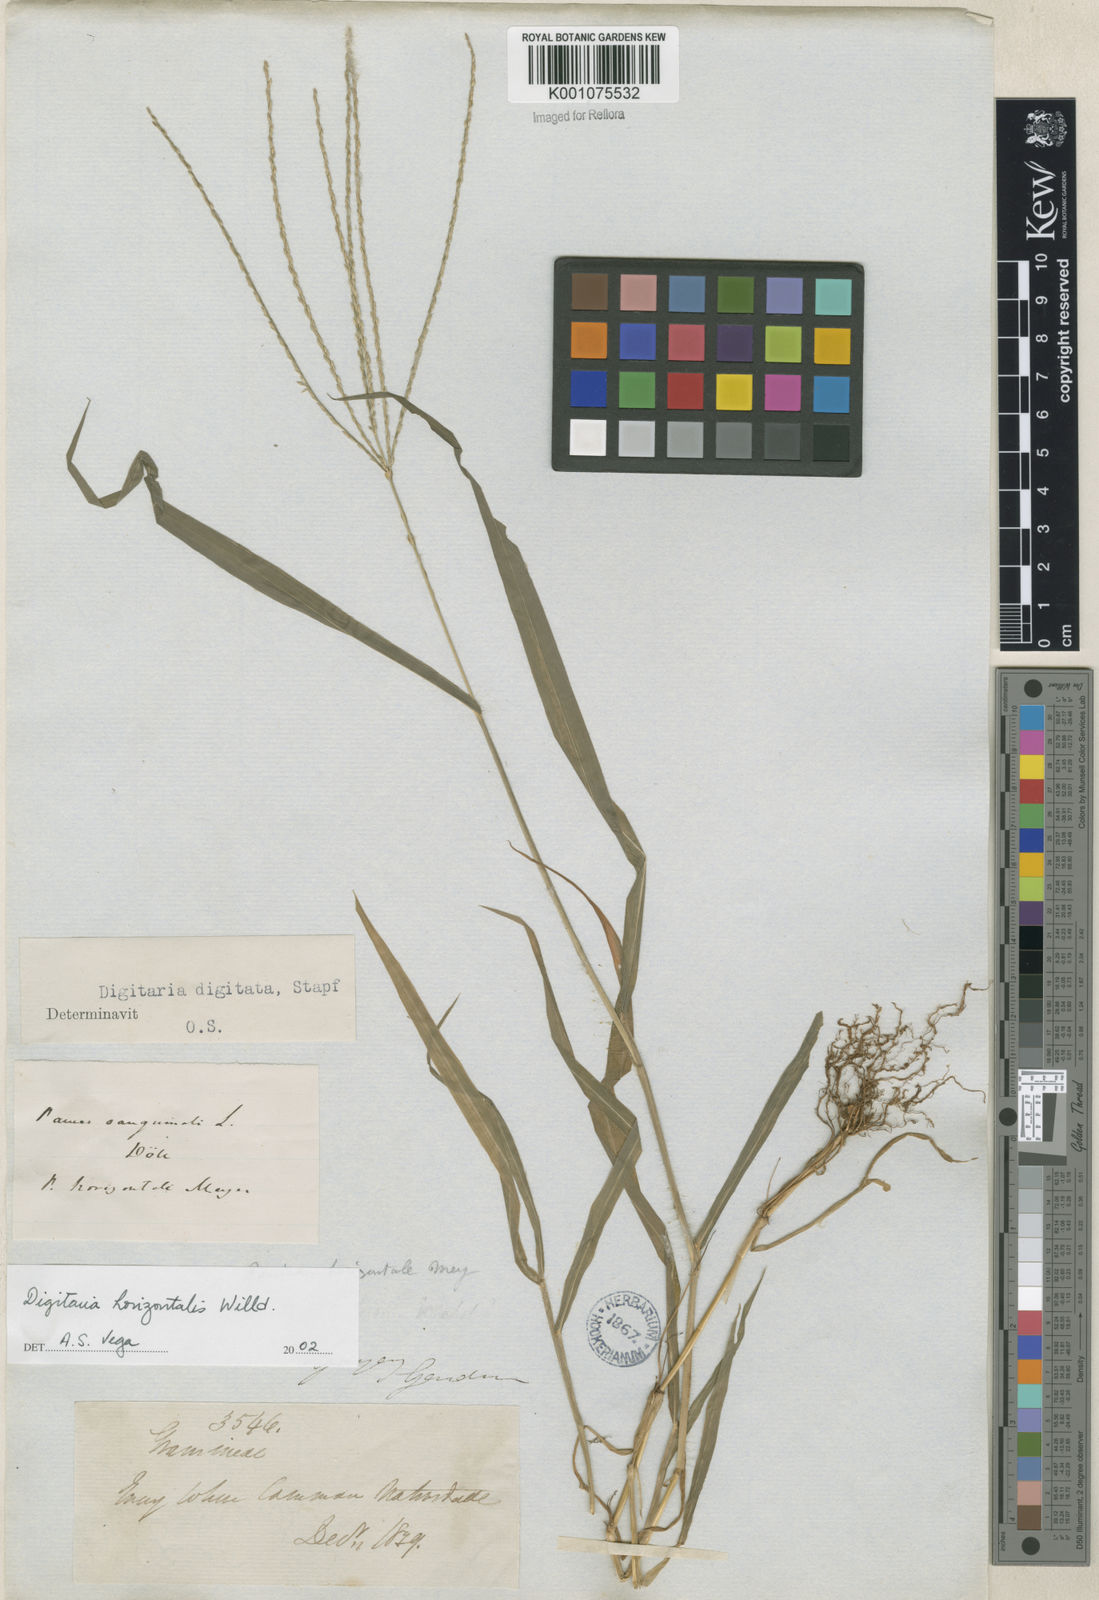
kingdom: Plantae
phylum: Tracheophyta
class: Liliopsida
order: Poales
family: Poaceae
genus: Digitaria
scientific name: Digitaria horizontalis
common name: Jamaican crabgrass
